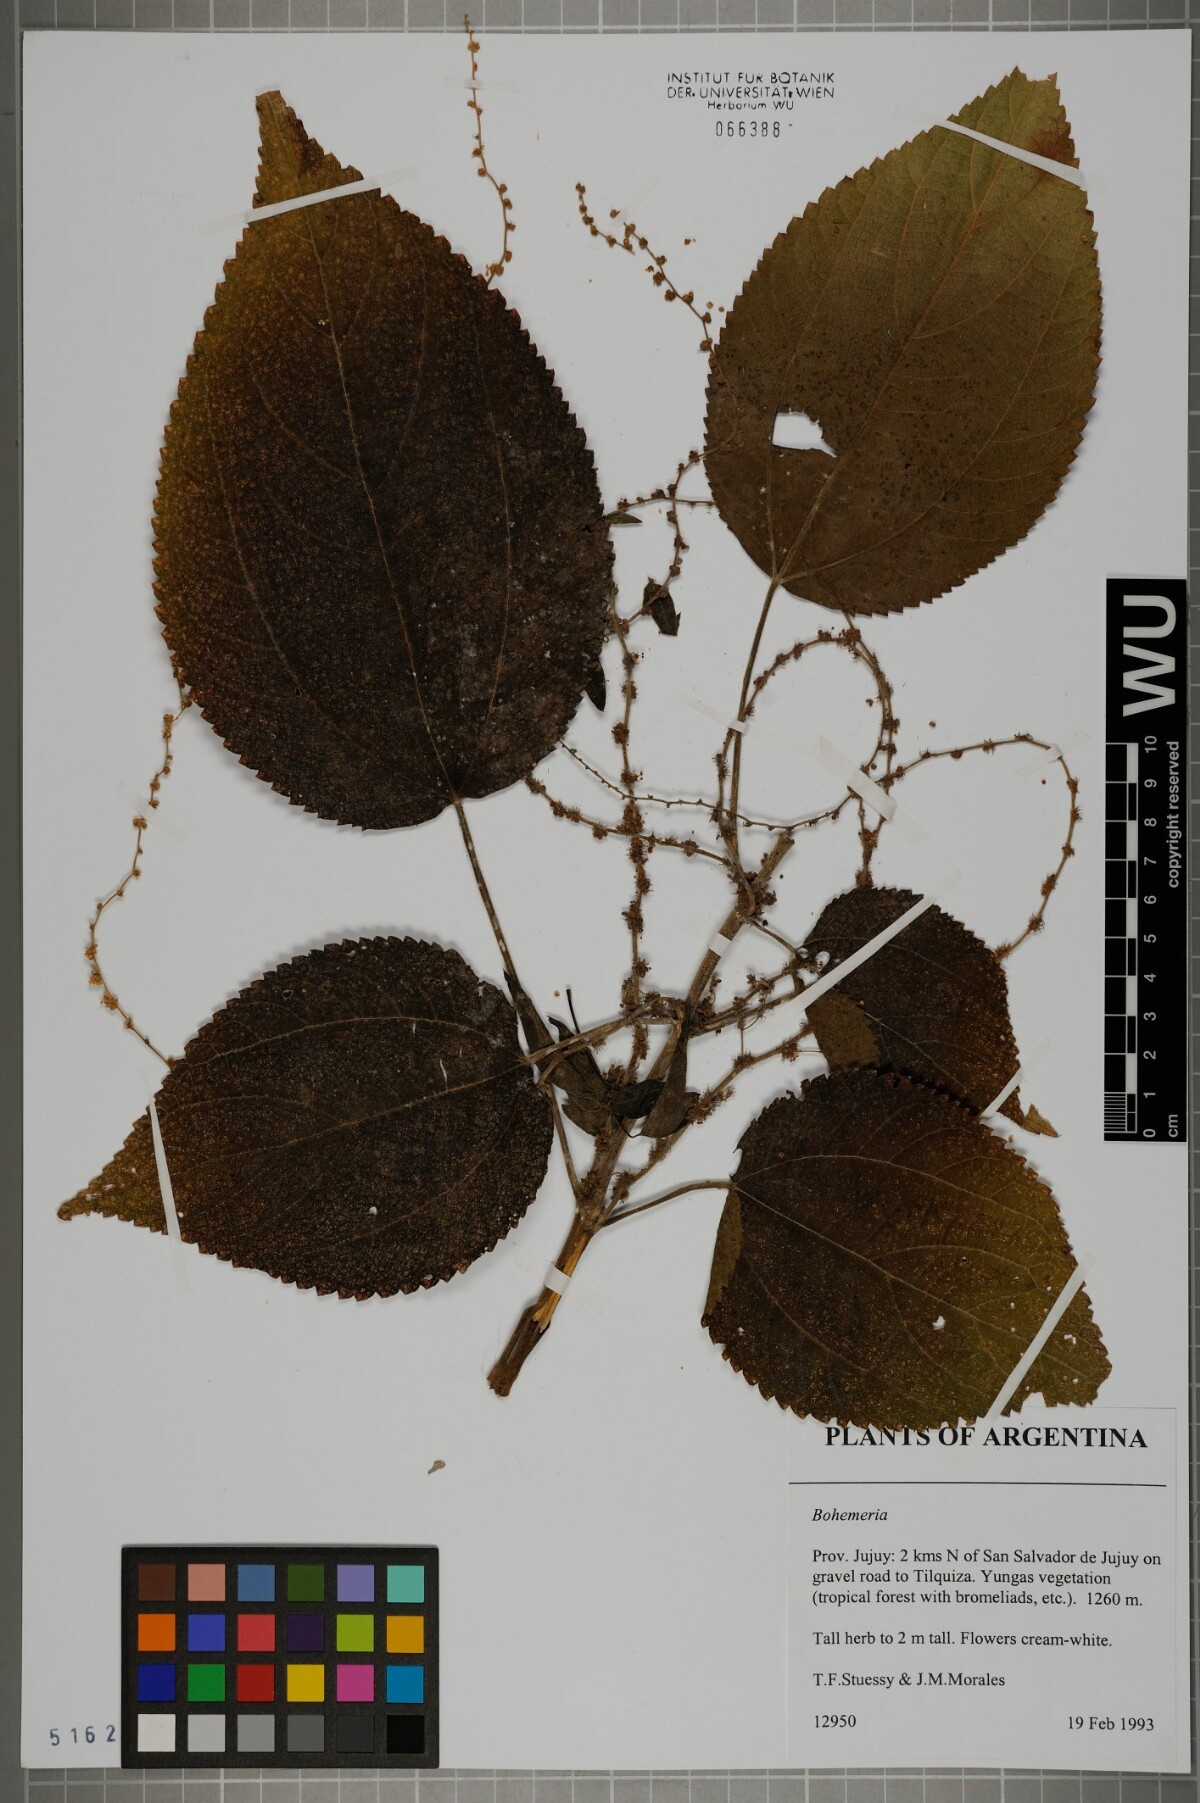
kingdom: Plantae
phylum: Tracheophyta
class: Magnoliopsida
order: Rosales
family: Urticaceae
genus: Boehmeria
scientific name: Boehmeria
